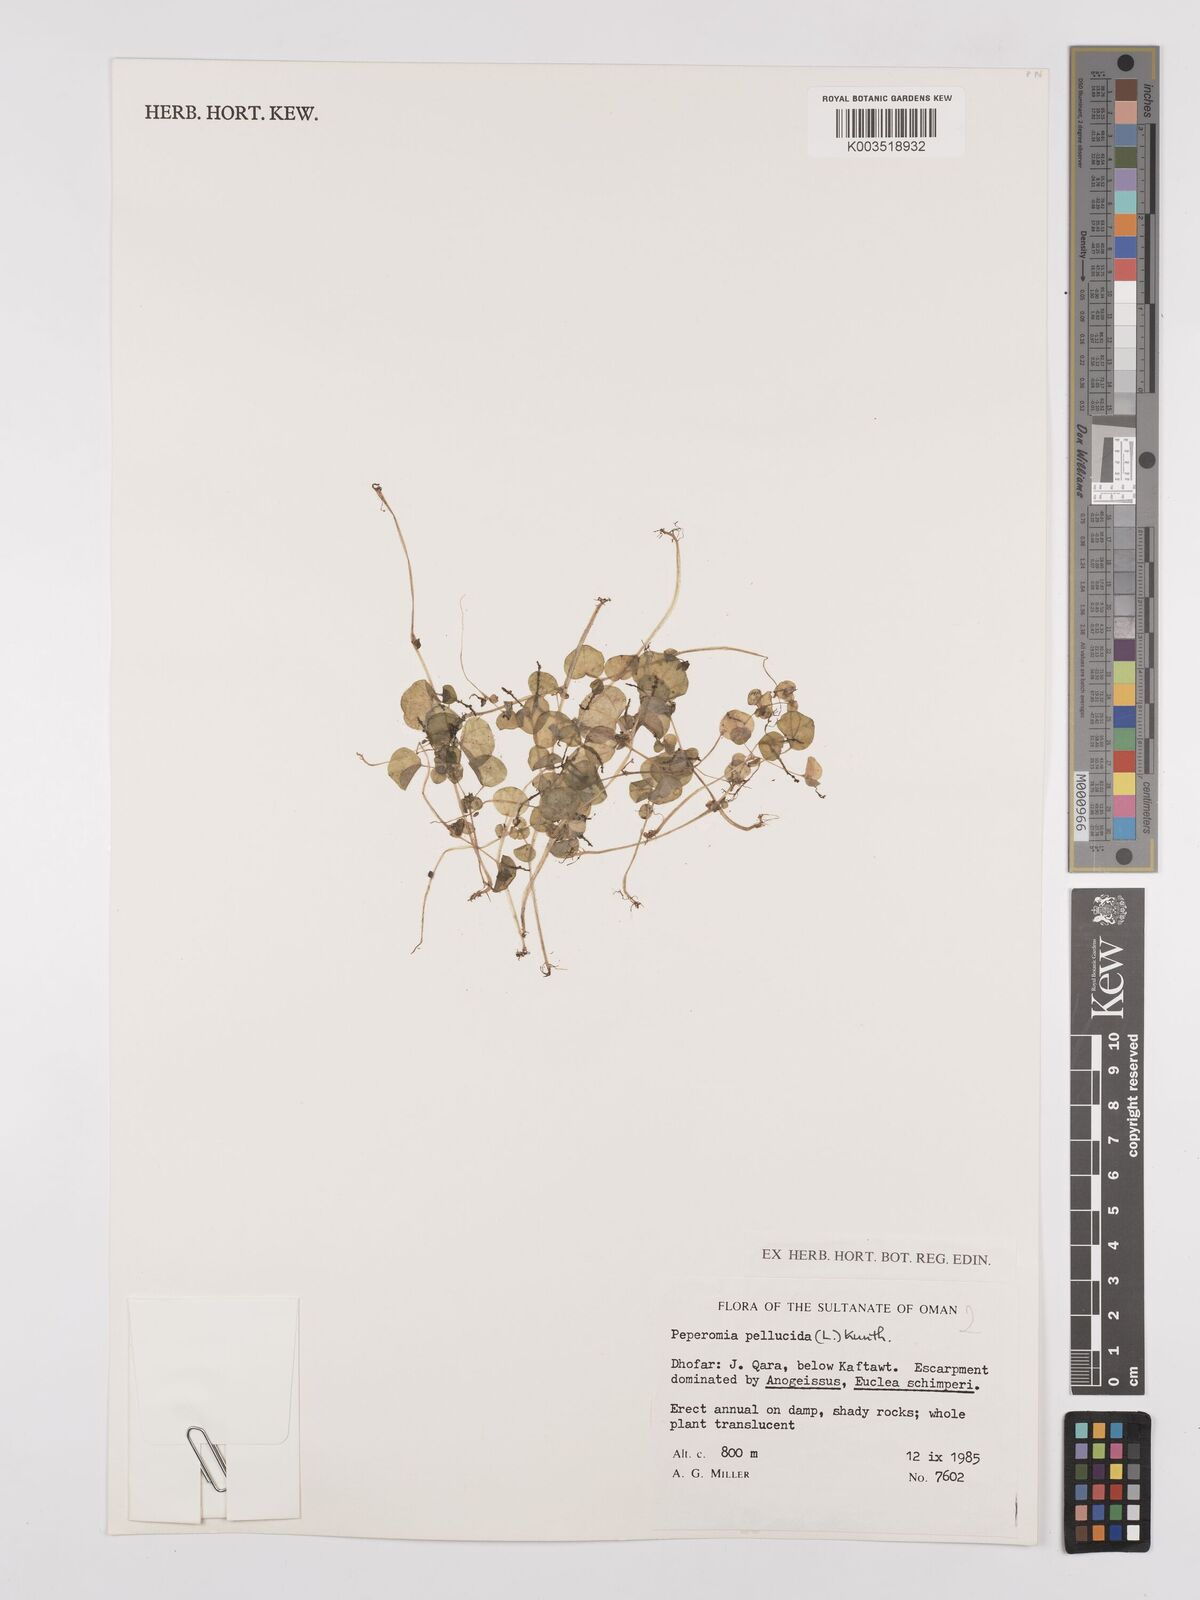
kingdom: Plantae
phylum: Tracheophyta
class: Magnoliopsida
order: Piperales
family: Piperaceae
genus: Peperomia
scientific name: Peperomia pellucida
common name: Man to man
